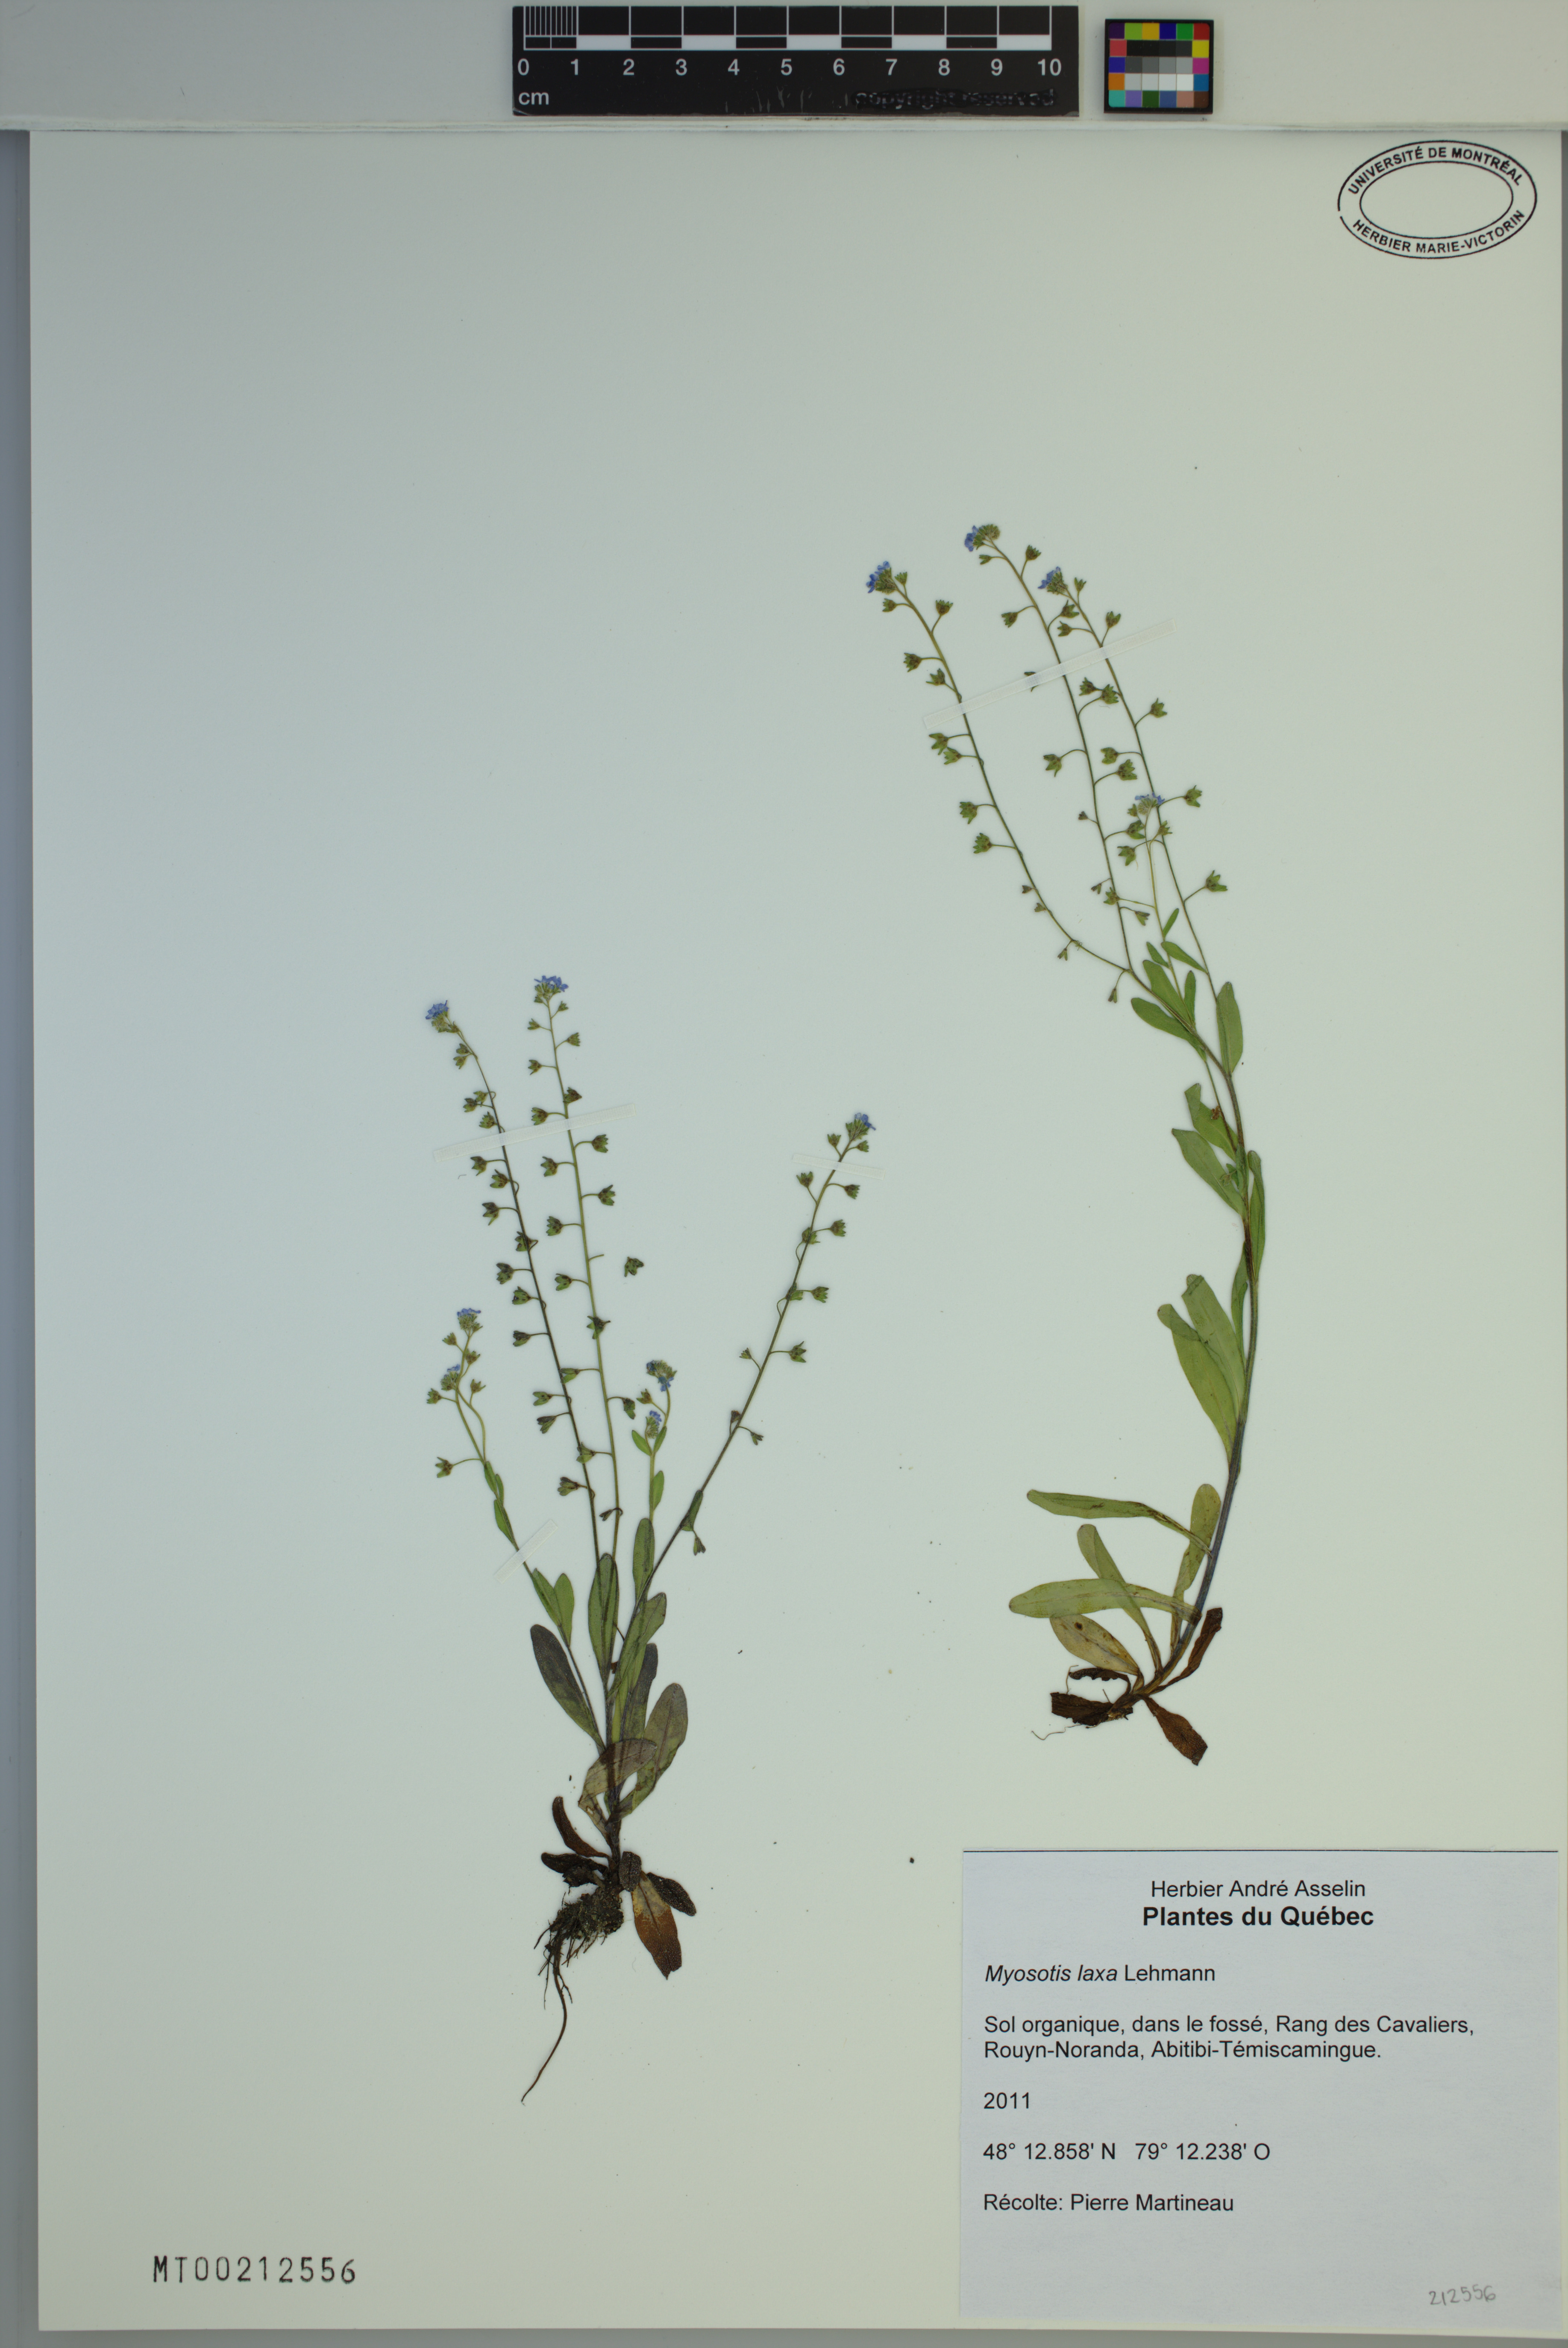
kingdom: Plantae
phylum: Tracheophyta
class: Magnoliopsida
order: Boraginales
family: Boraginaceae
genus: Myosotis
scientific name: Myosotis laxa
